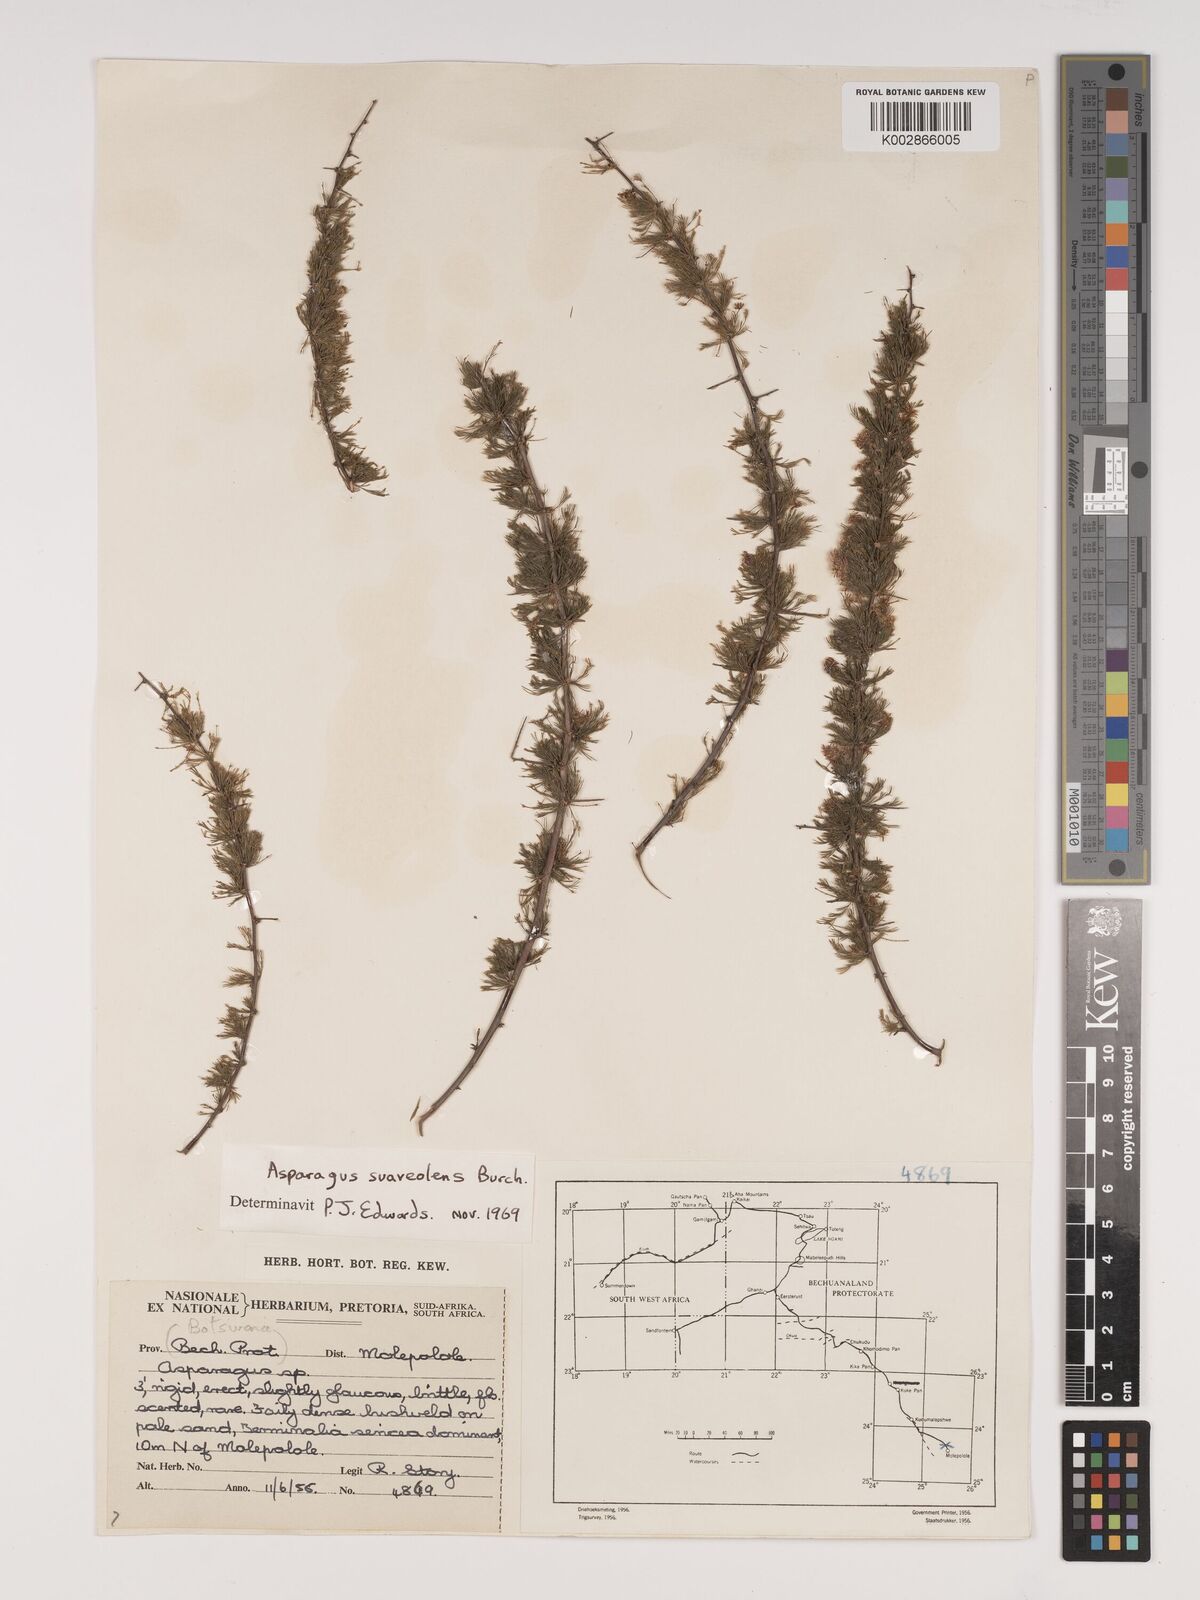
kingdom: Plantae
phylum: Tracheophyta
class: Liliopsida
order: Asparagales
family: Asparagaceae
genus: Asparagus
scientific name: Asparagus suaveolens
